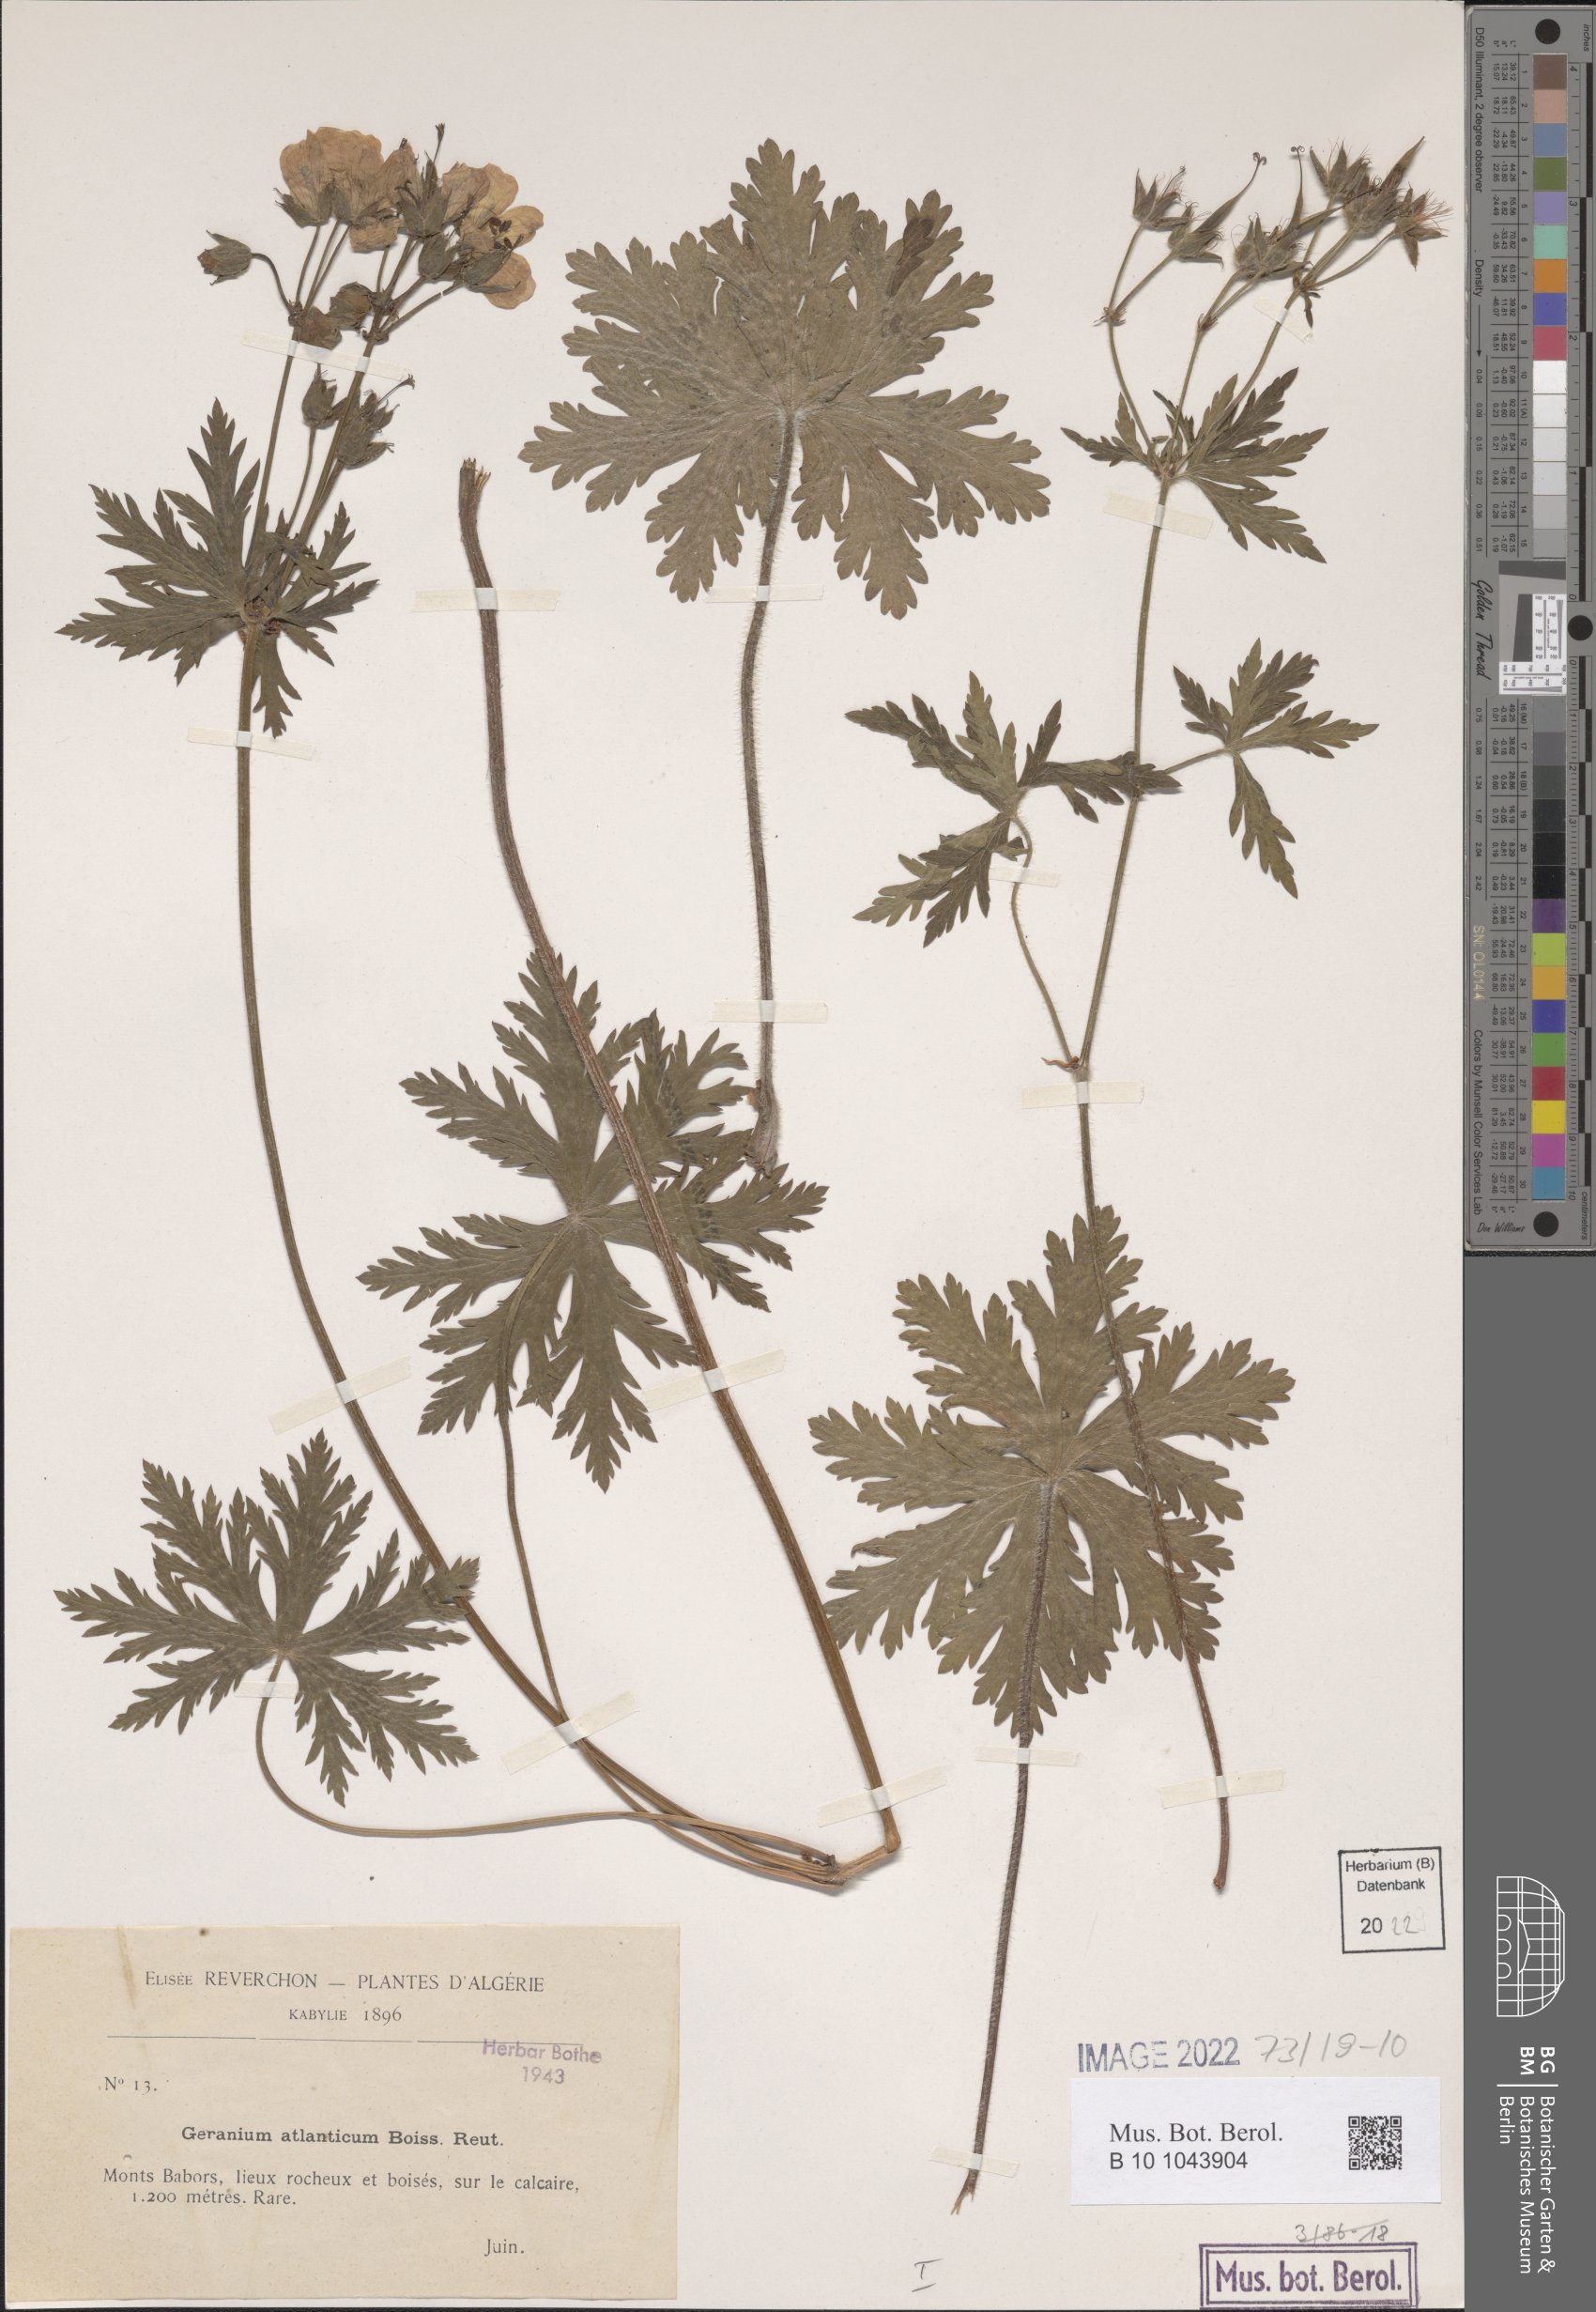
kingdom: Plantae
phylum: Tracheophyta
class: Magnoliopsida
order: Geraniales
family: Geraniaceae
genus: Geranium
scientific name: Geranium atlanticum
